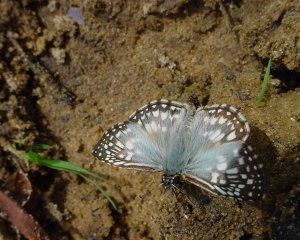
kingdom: Animalia
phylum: Arthropoda
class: Insecta
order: Lepidoptera
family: Hesperiidae
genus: Pyrgus
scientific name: Pyrgus oileus
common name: Tropical Checkered-Skipper
